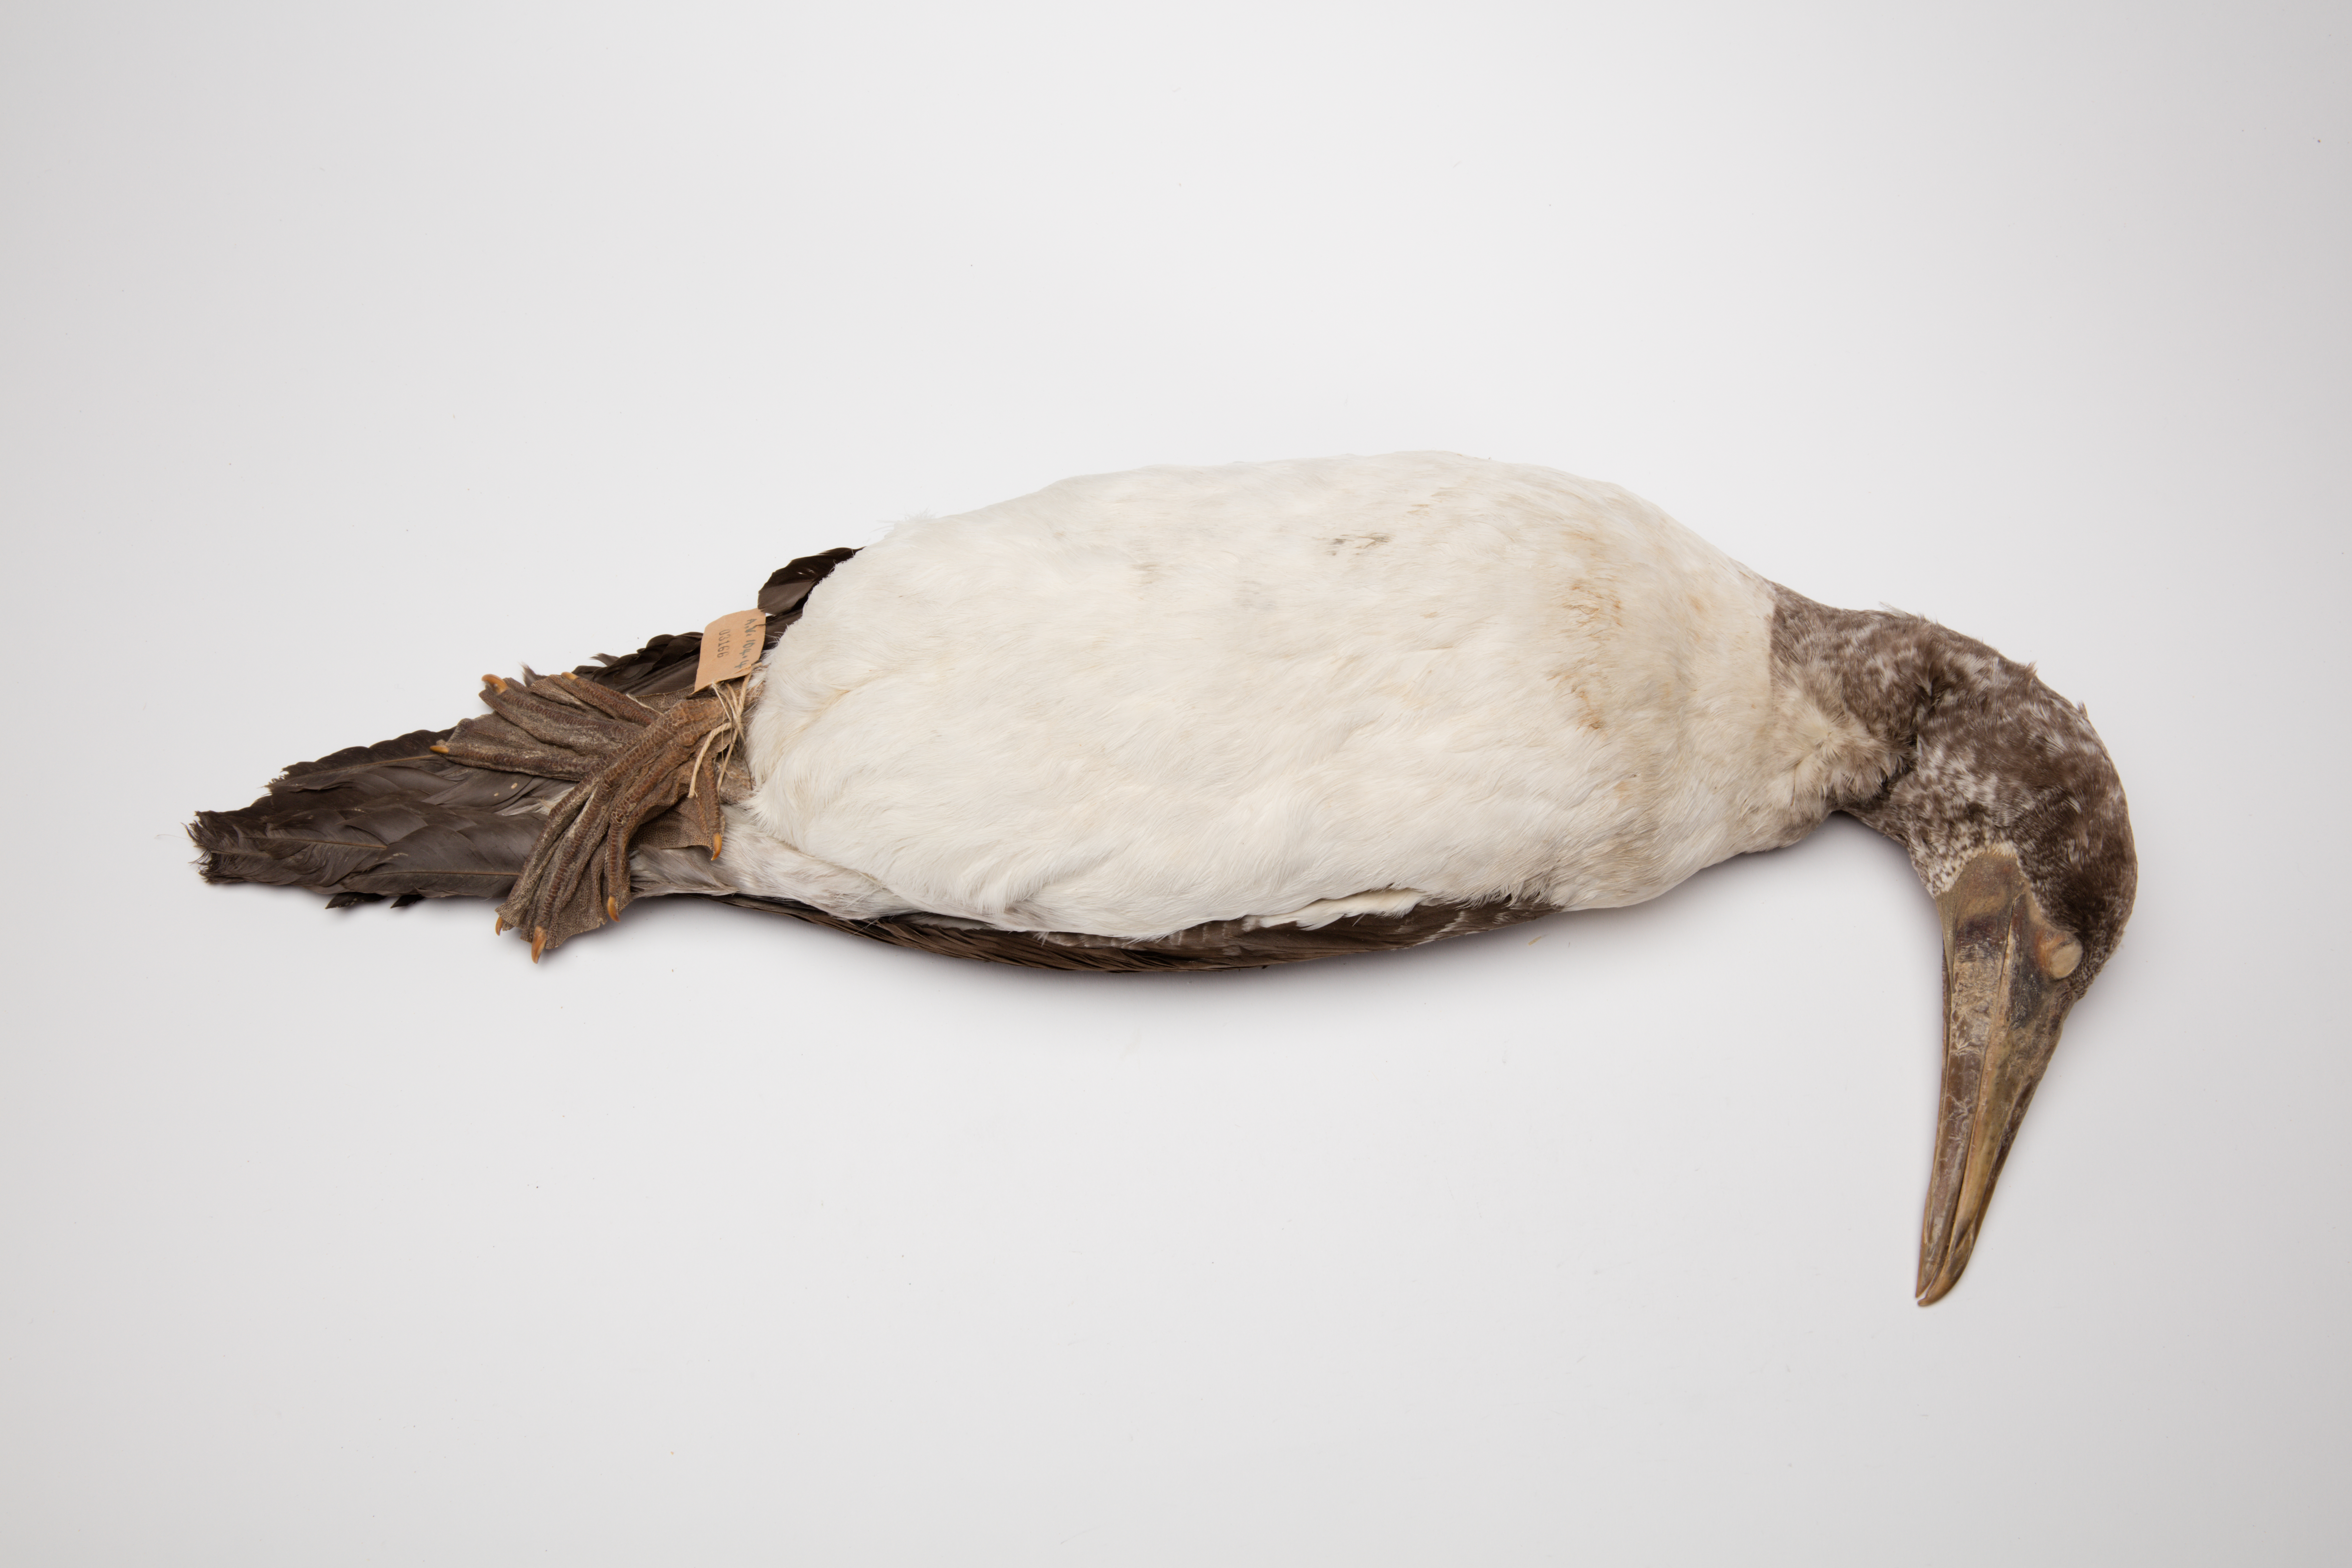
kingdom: Animalia
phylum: Chordata
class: Aves
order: Suliformes
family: Sulidae
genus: Sula
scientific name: Sula dactylatra
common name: Masked booby
